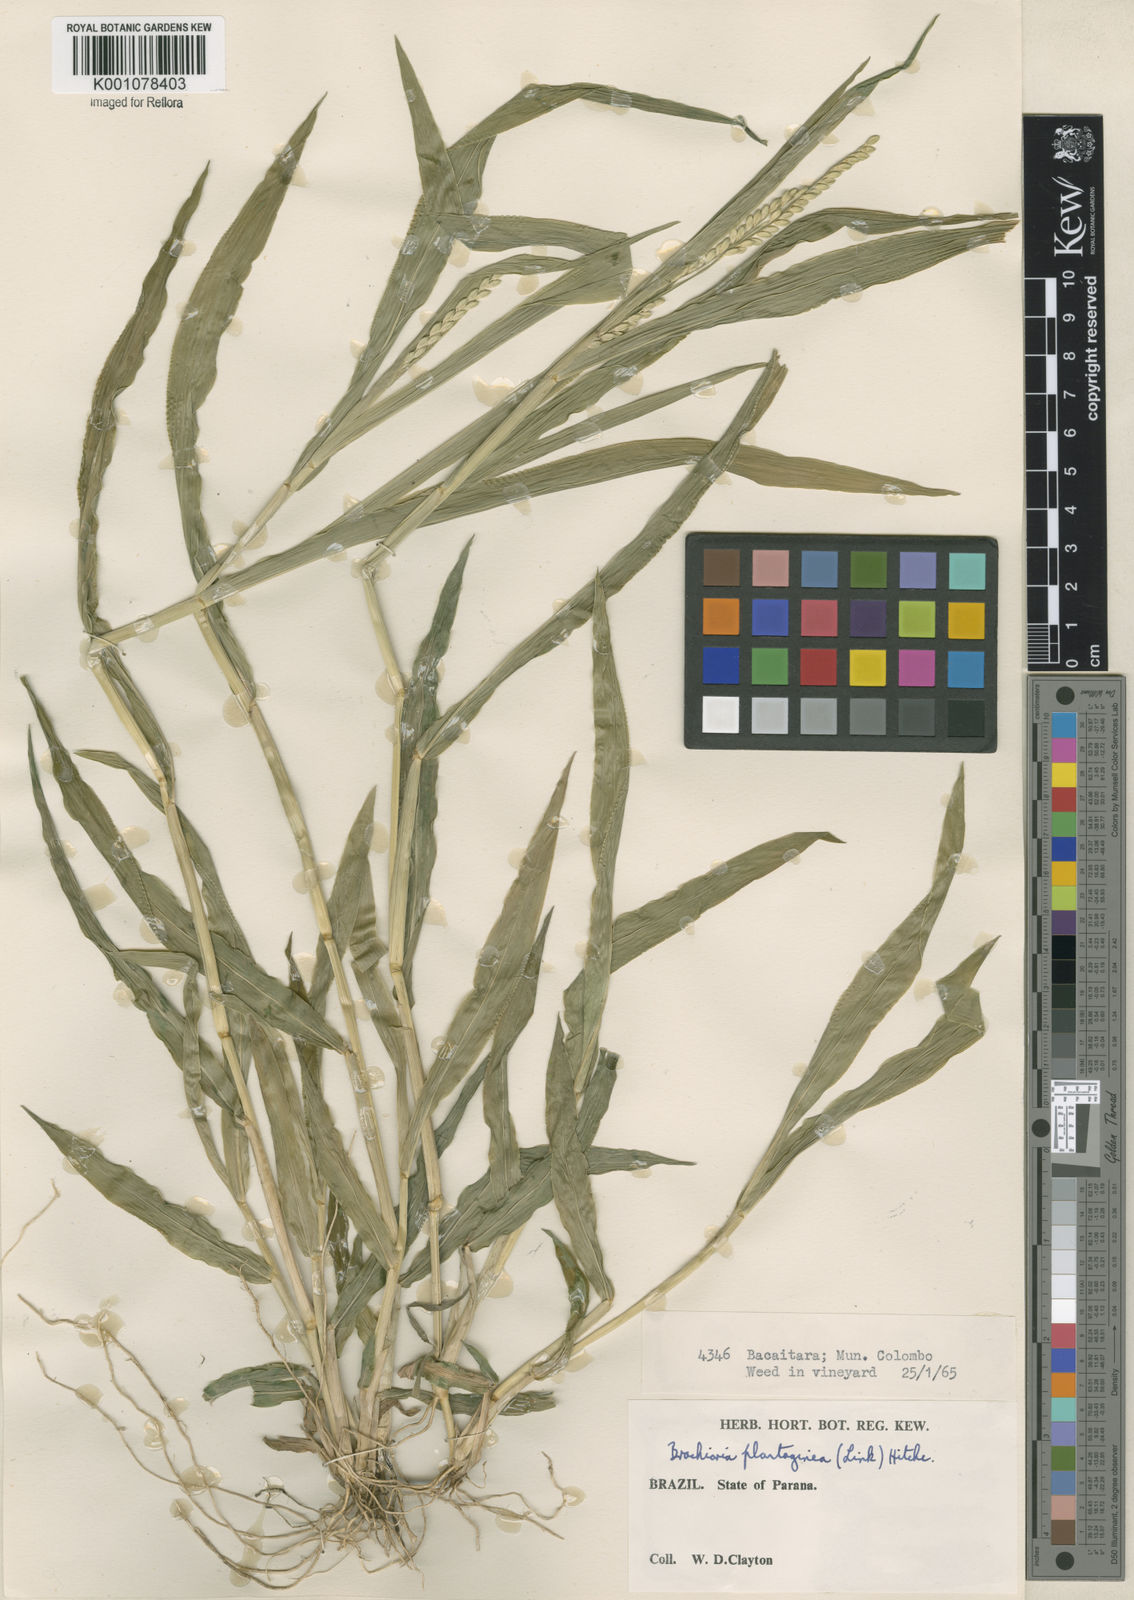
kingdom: Plantae
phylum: Tracheophyta
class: Liliopsida
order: Poales
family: Poaceae
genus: Urochloa
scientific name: Urochloa plantaginea
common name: Plantain signalgrass
